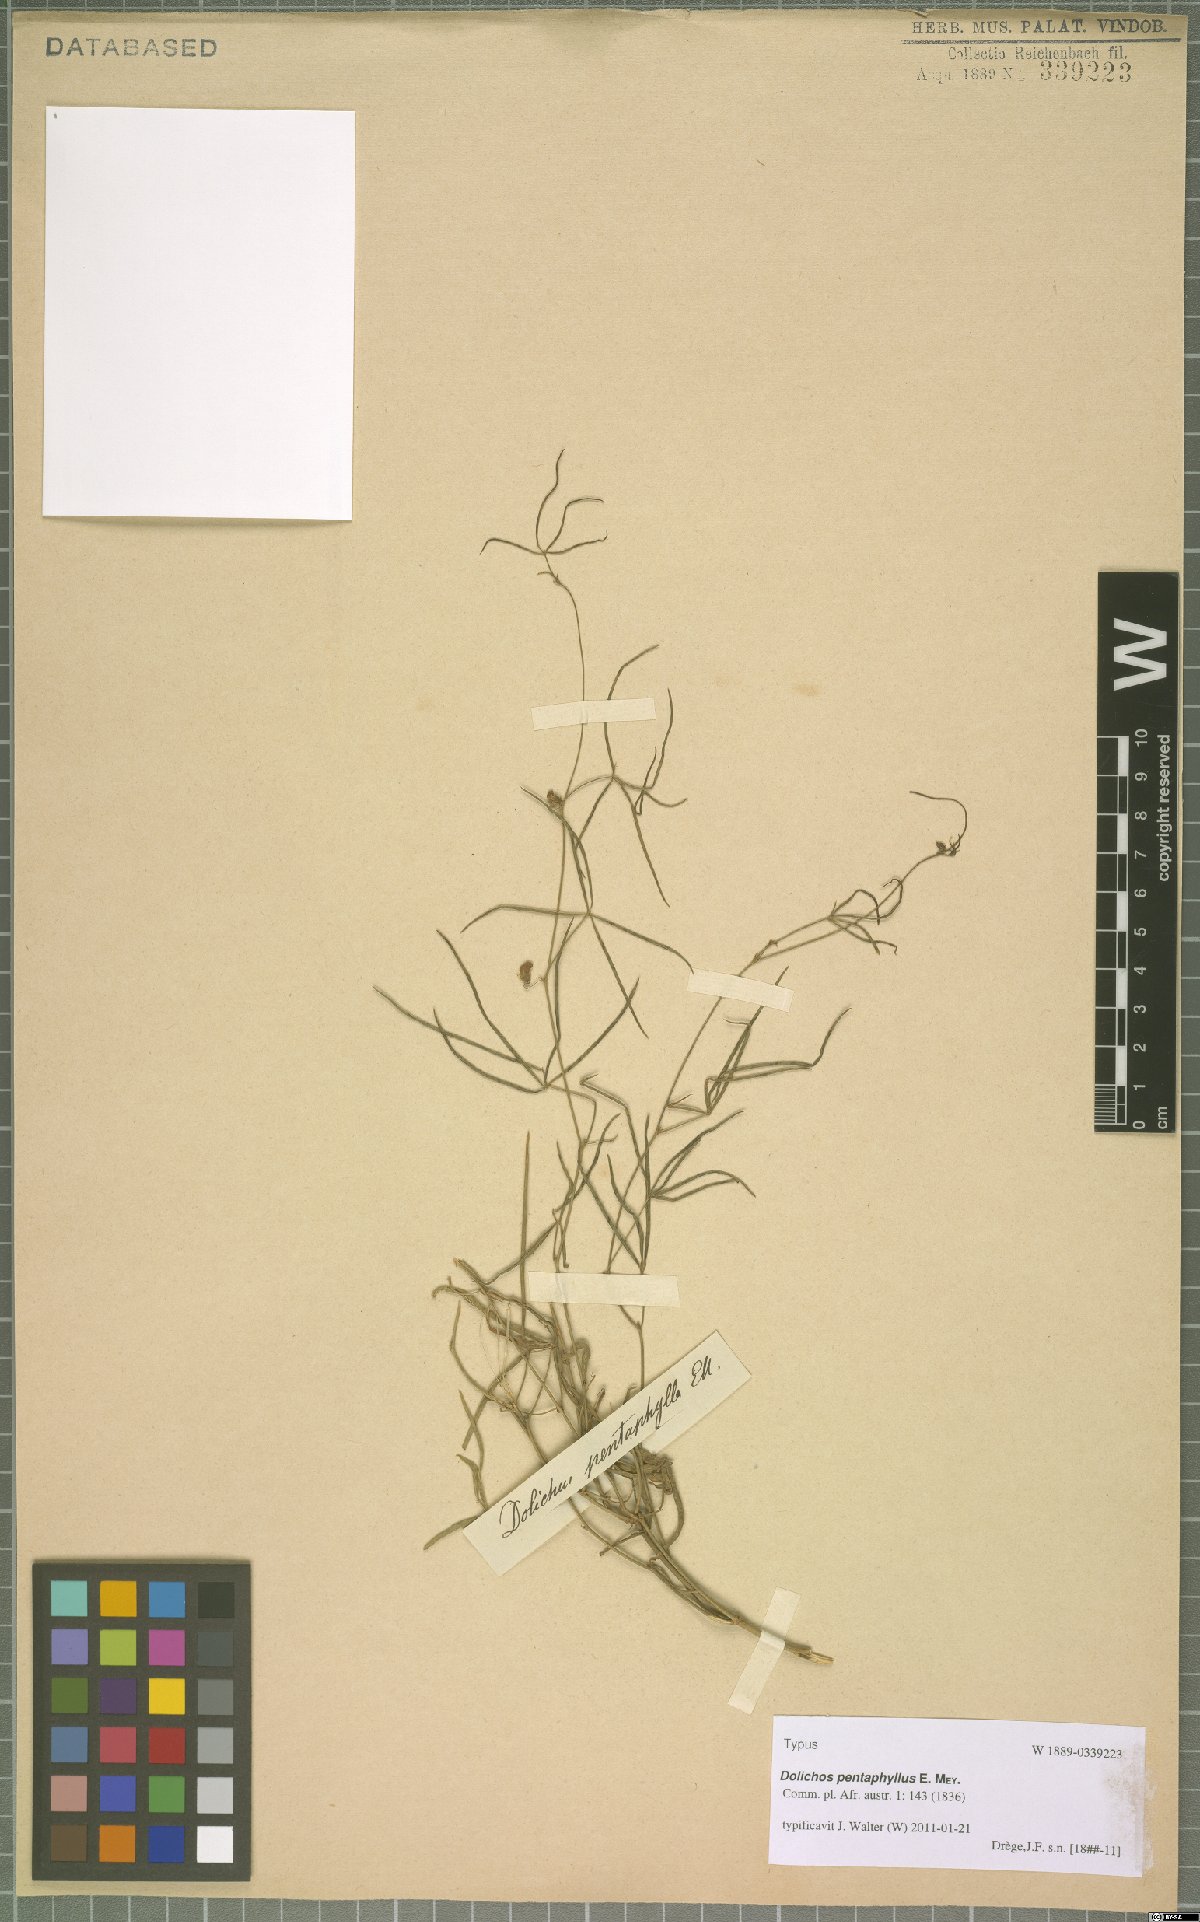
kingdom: Plantae
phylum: Tracheophyta
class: Magnoliopsida
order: Fabales
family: Fabaceae
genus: Dolichos
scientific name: Dolichos linearis
